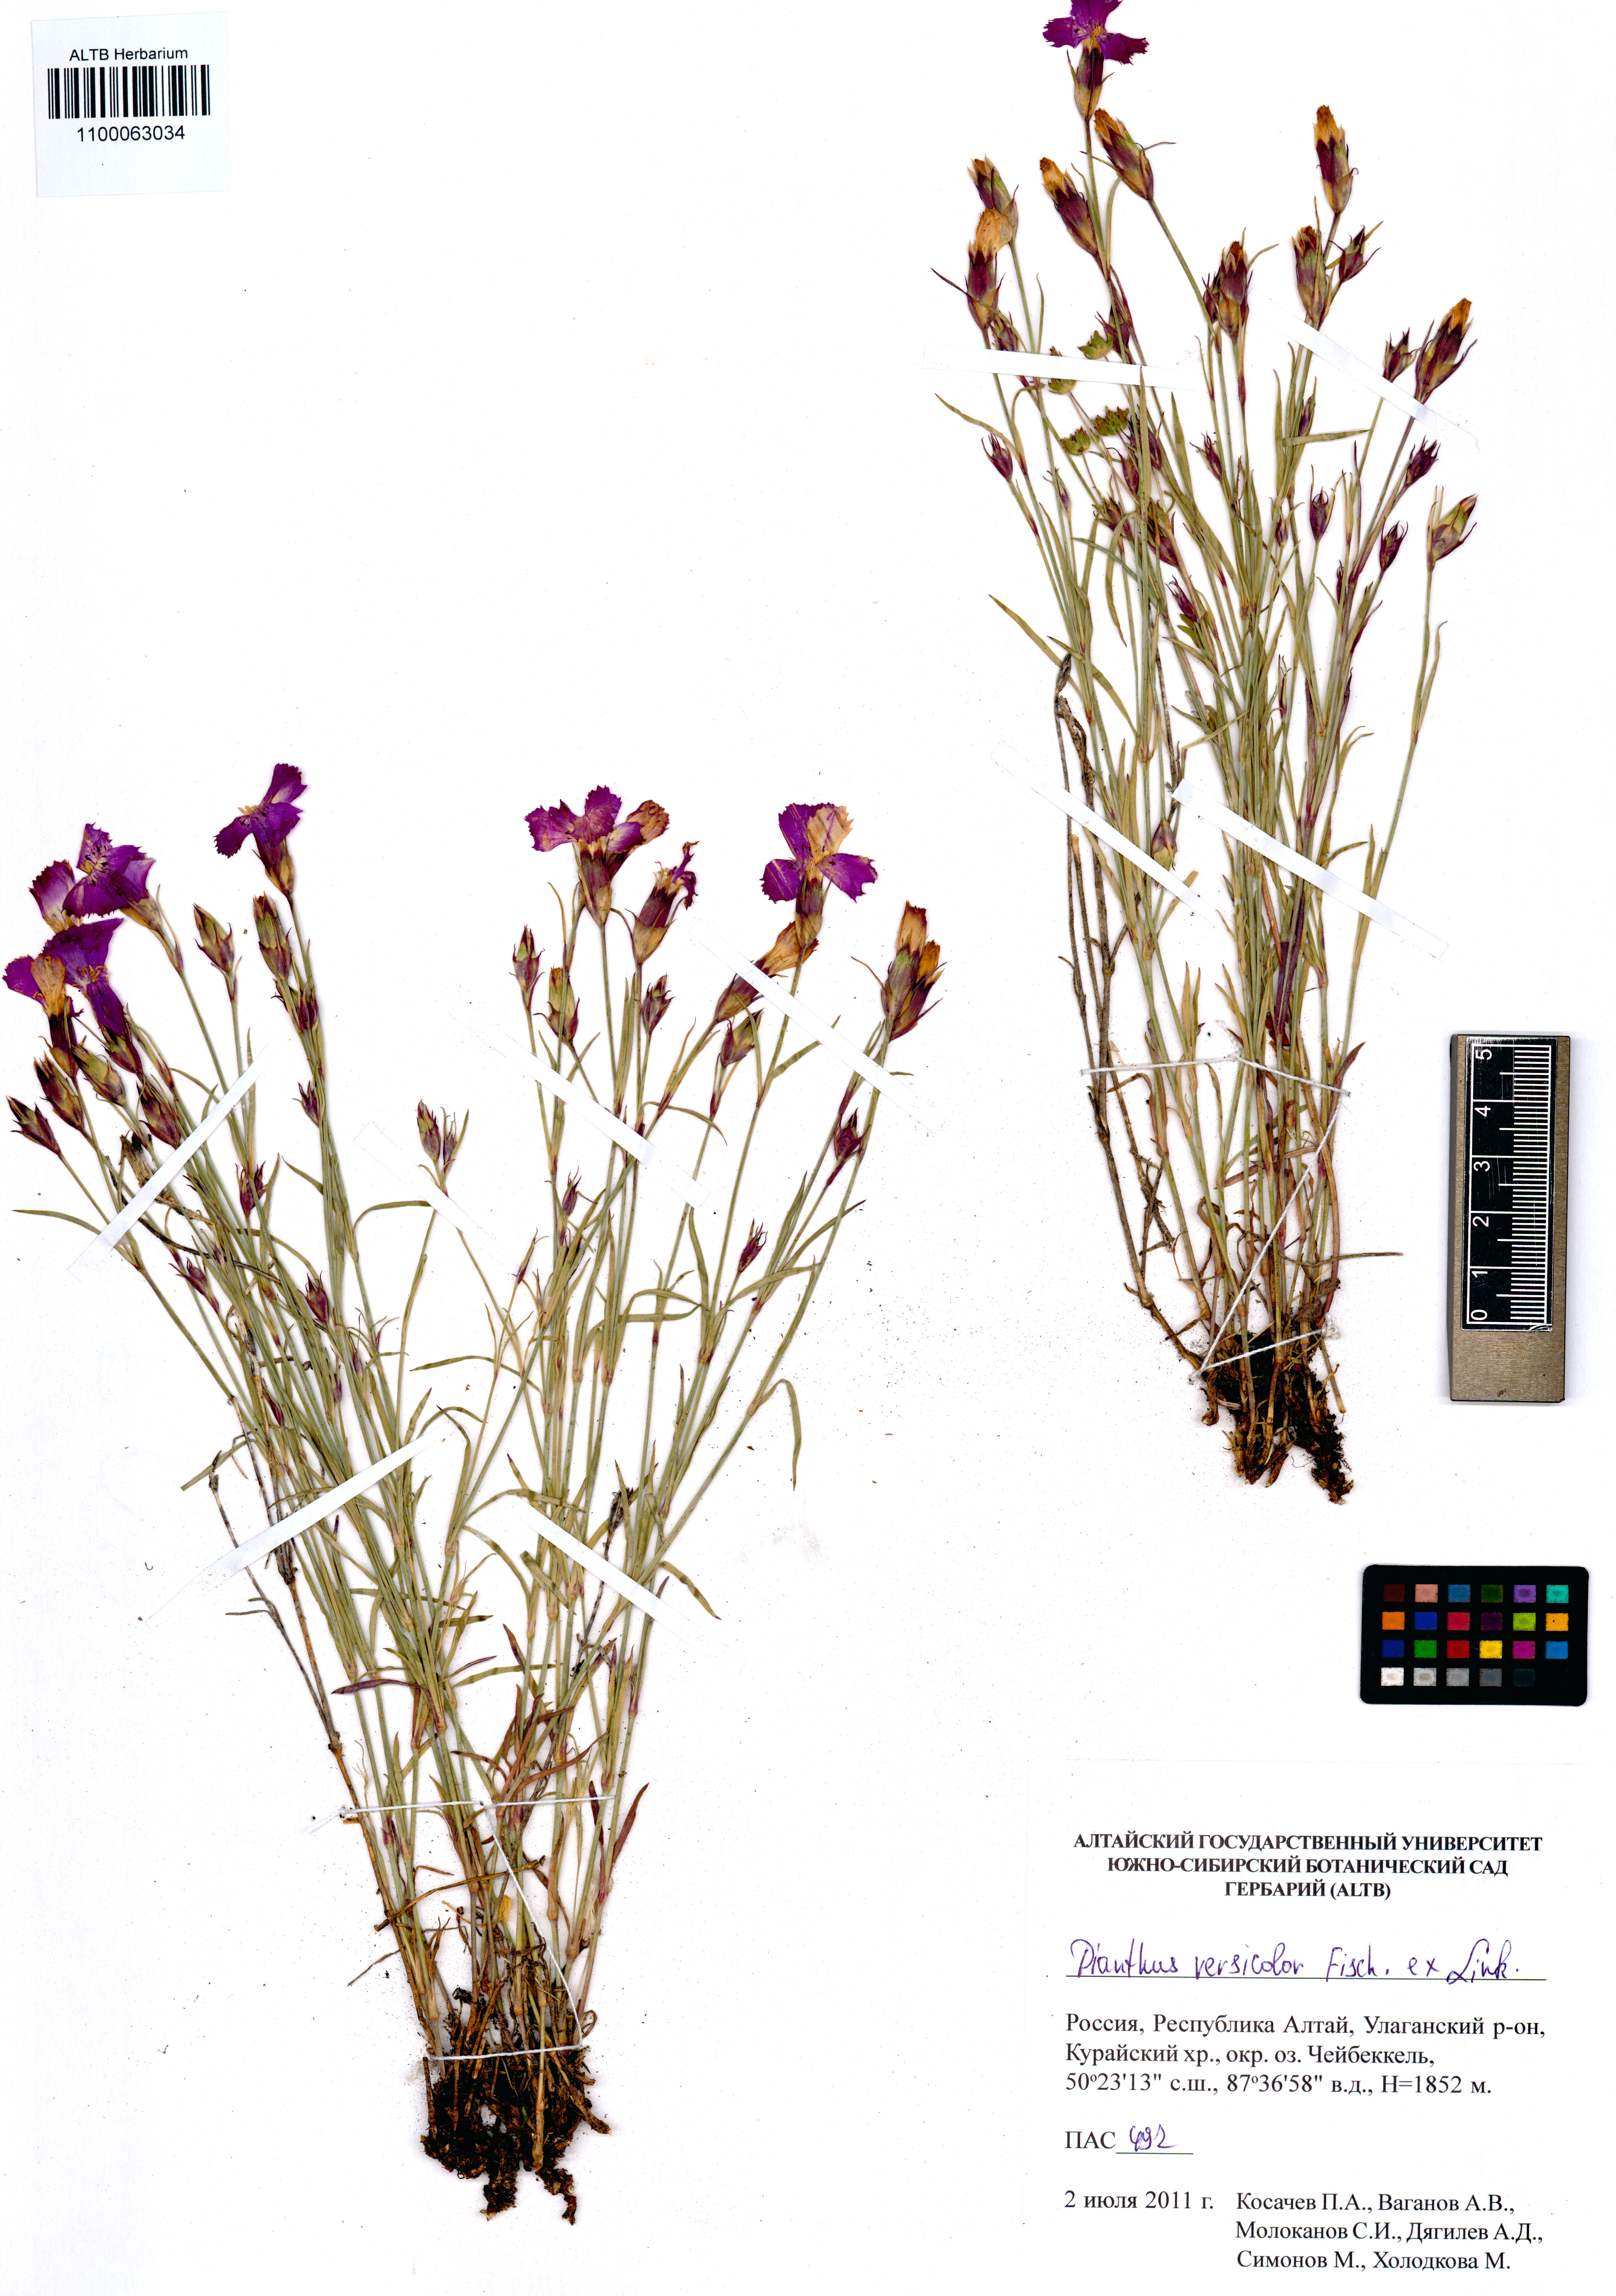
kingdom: Plantae
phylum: Tracheophyta
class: Magnoliopsida
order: Caryophyllales
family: Caryophyllaceae
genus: Dianthus
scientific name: Dianthus chinensis
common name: Rainbow pink
